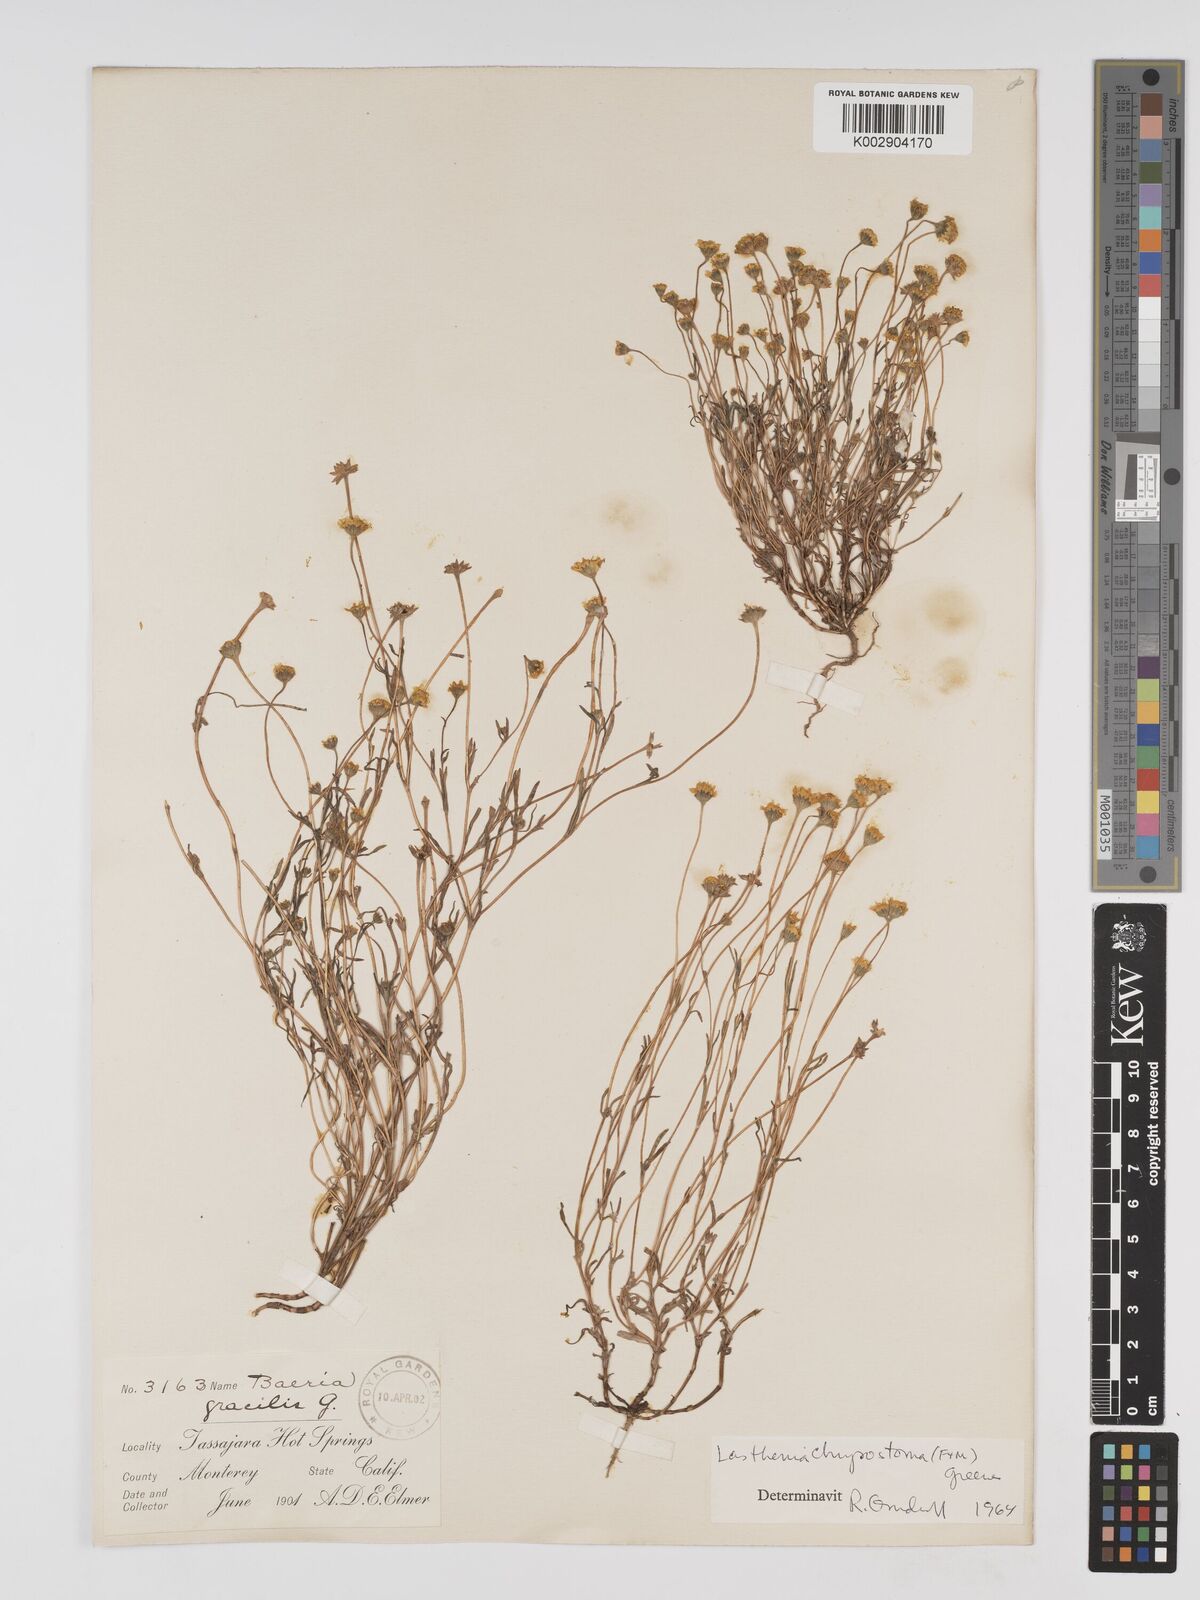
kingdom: Plantae
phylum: Tracheophyta
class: Magnoliopsida
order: Asterales
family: Asteraceae
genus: Lasthenia
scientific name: Lasthenia californica
